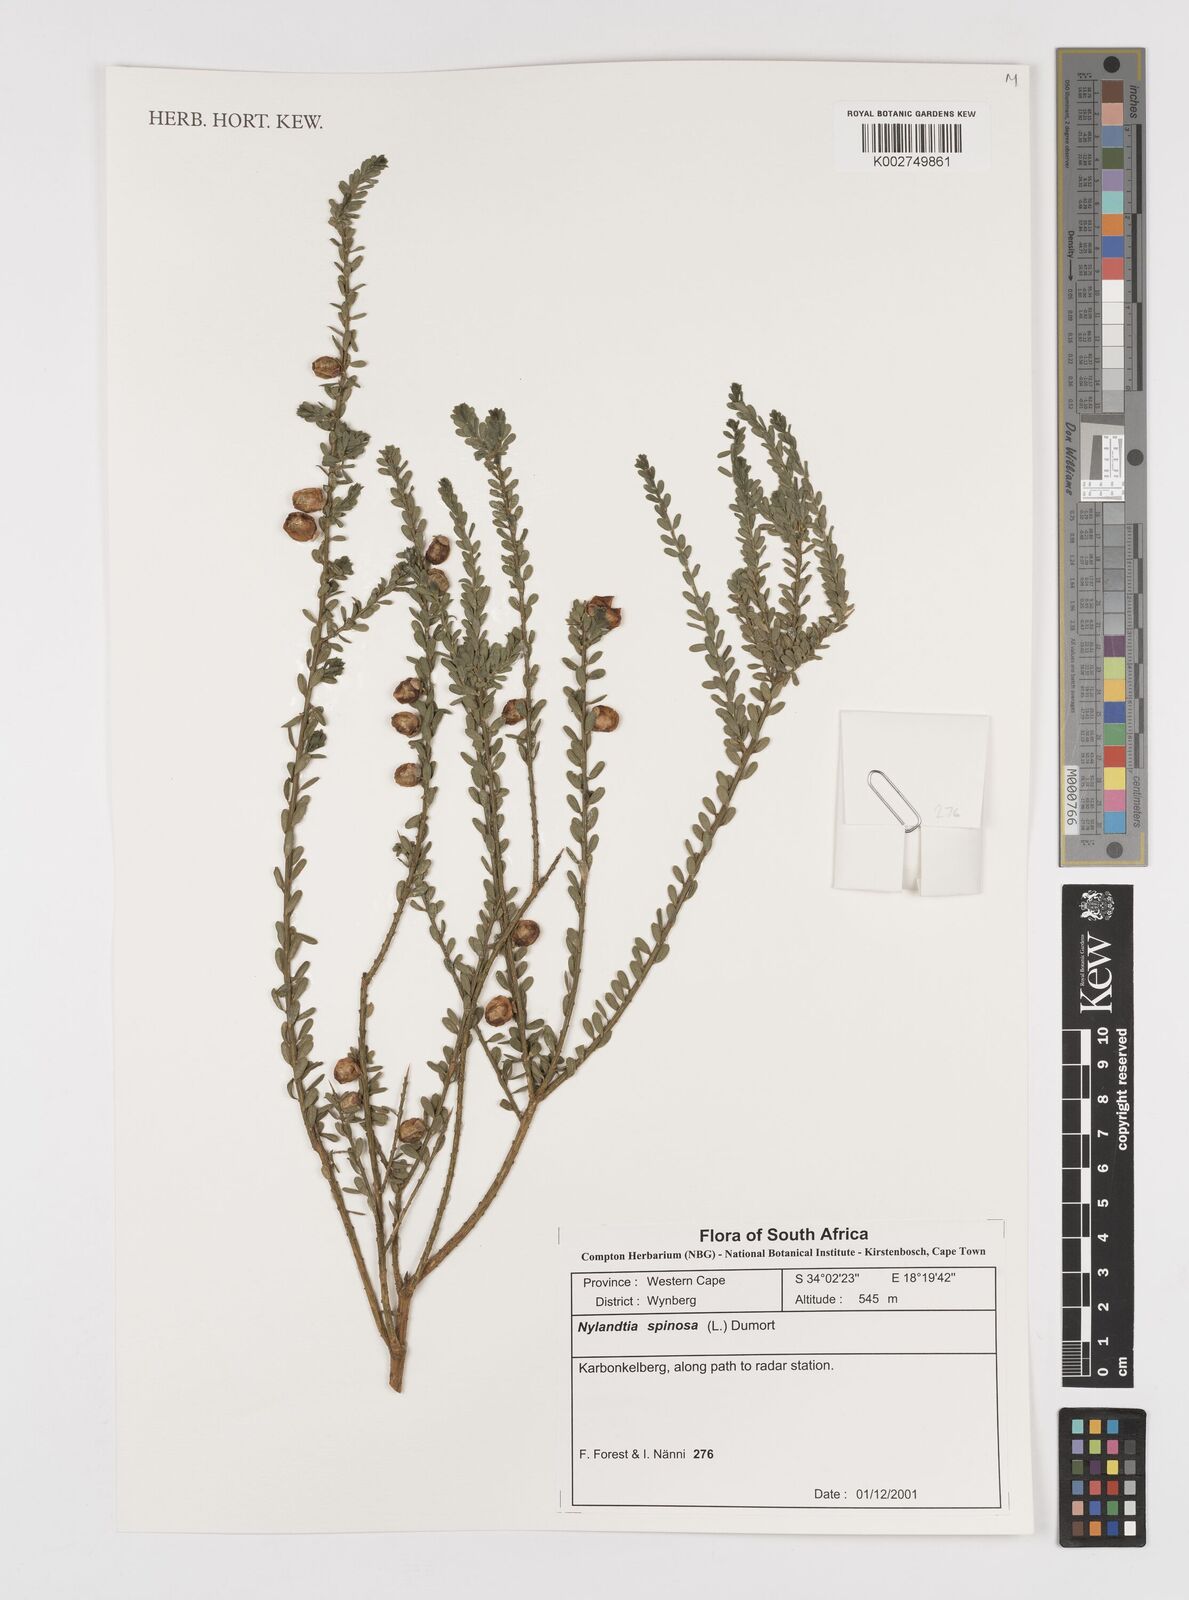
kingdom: Plantae
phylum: Tracheophyta
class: Magnoliopsida
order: Fabales
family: Polygalaceae
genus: Muraltia
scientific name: Muraltia spinosa
